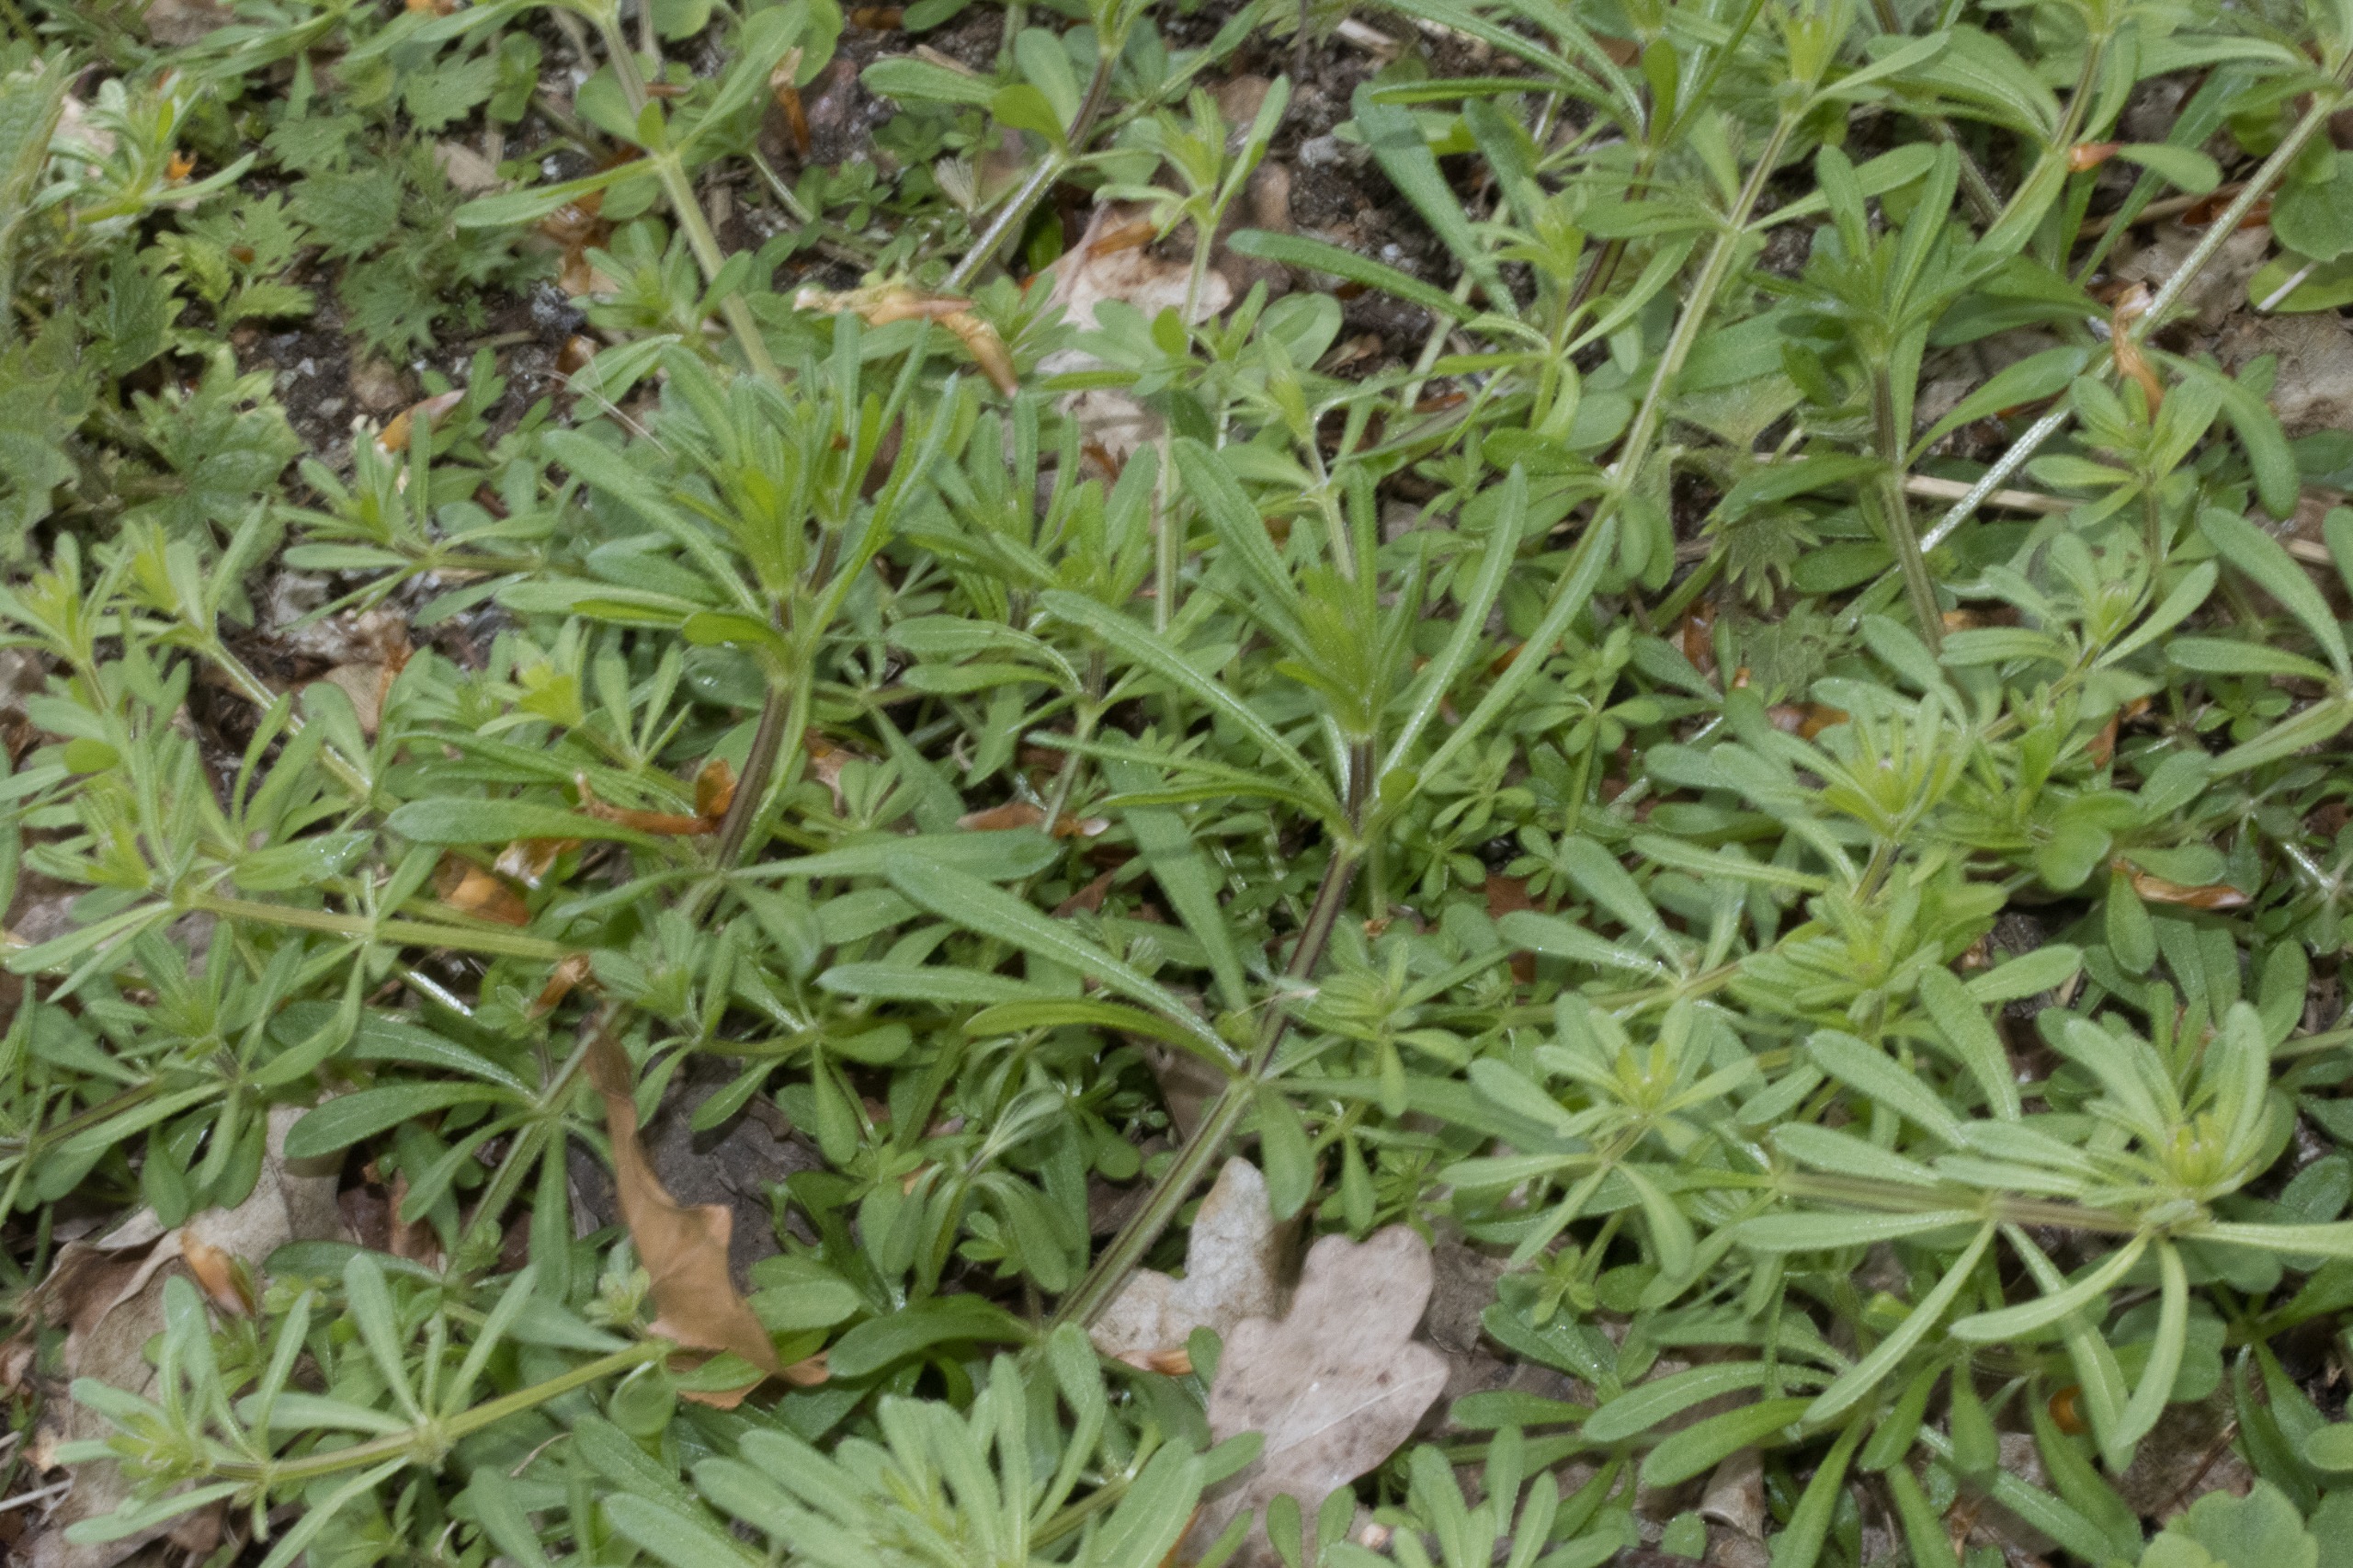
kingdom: Plantae
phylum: Tracheophyta
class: Magnoliopsida
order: Gentianales
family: Rubiaceae
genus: Galium
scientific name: Galium aparine
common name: Burre-snerre
